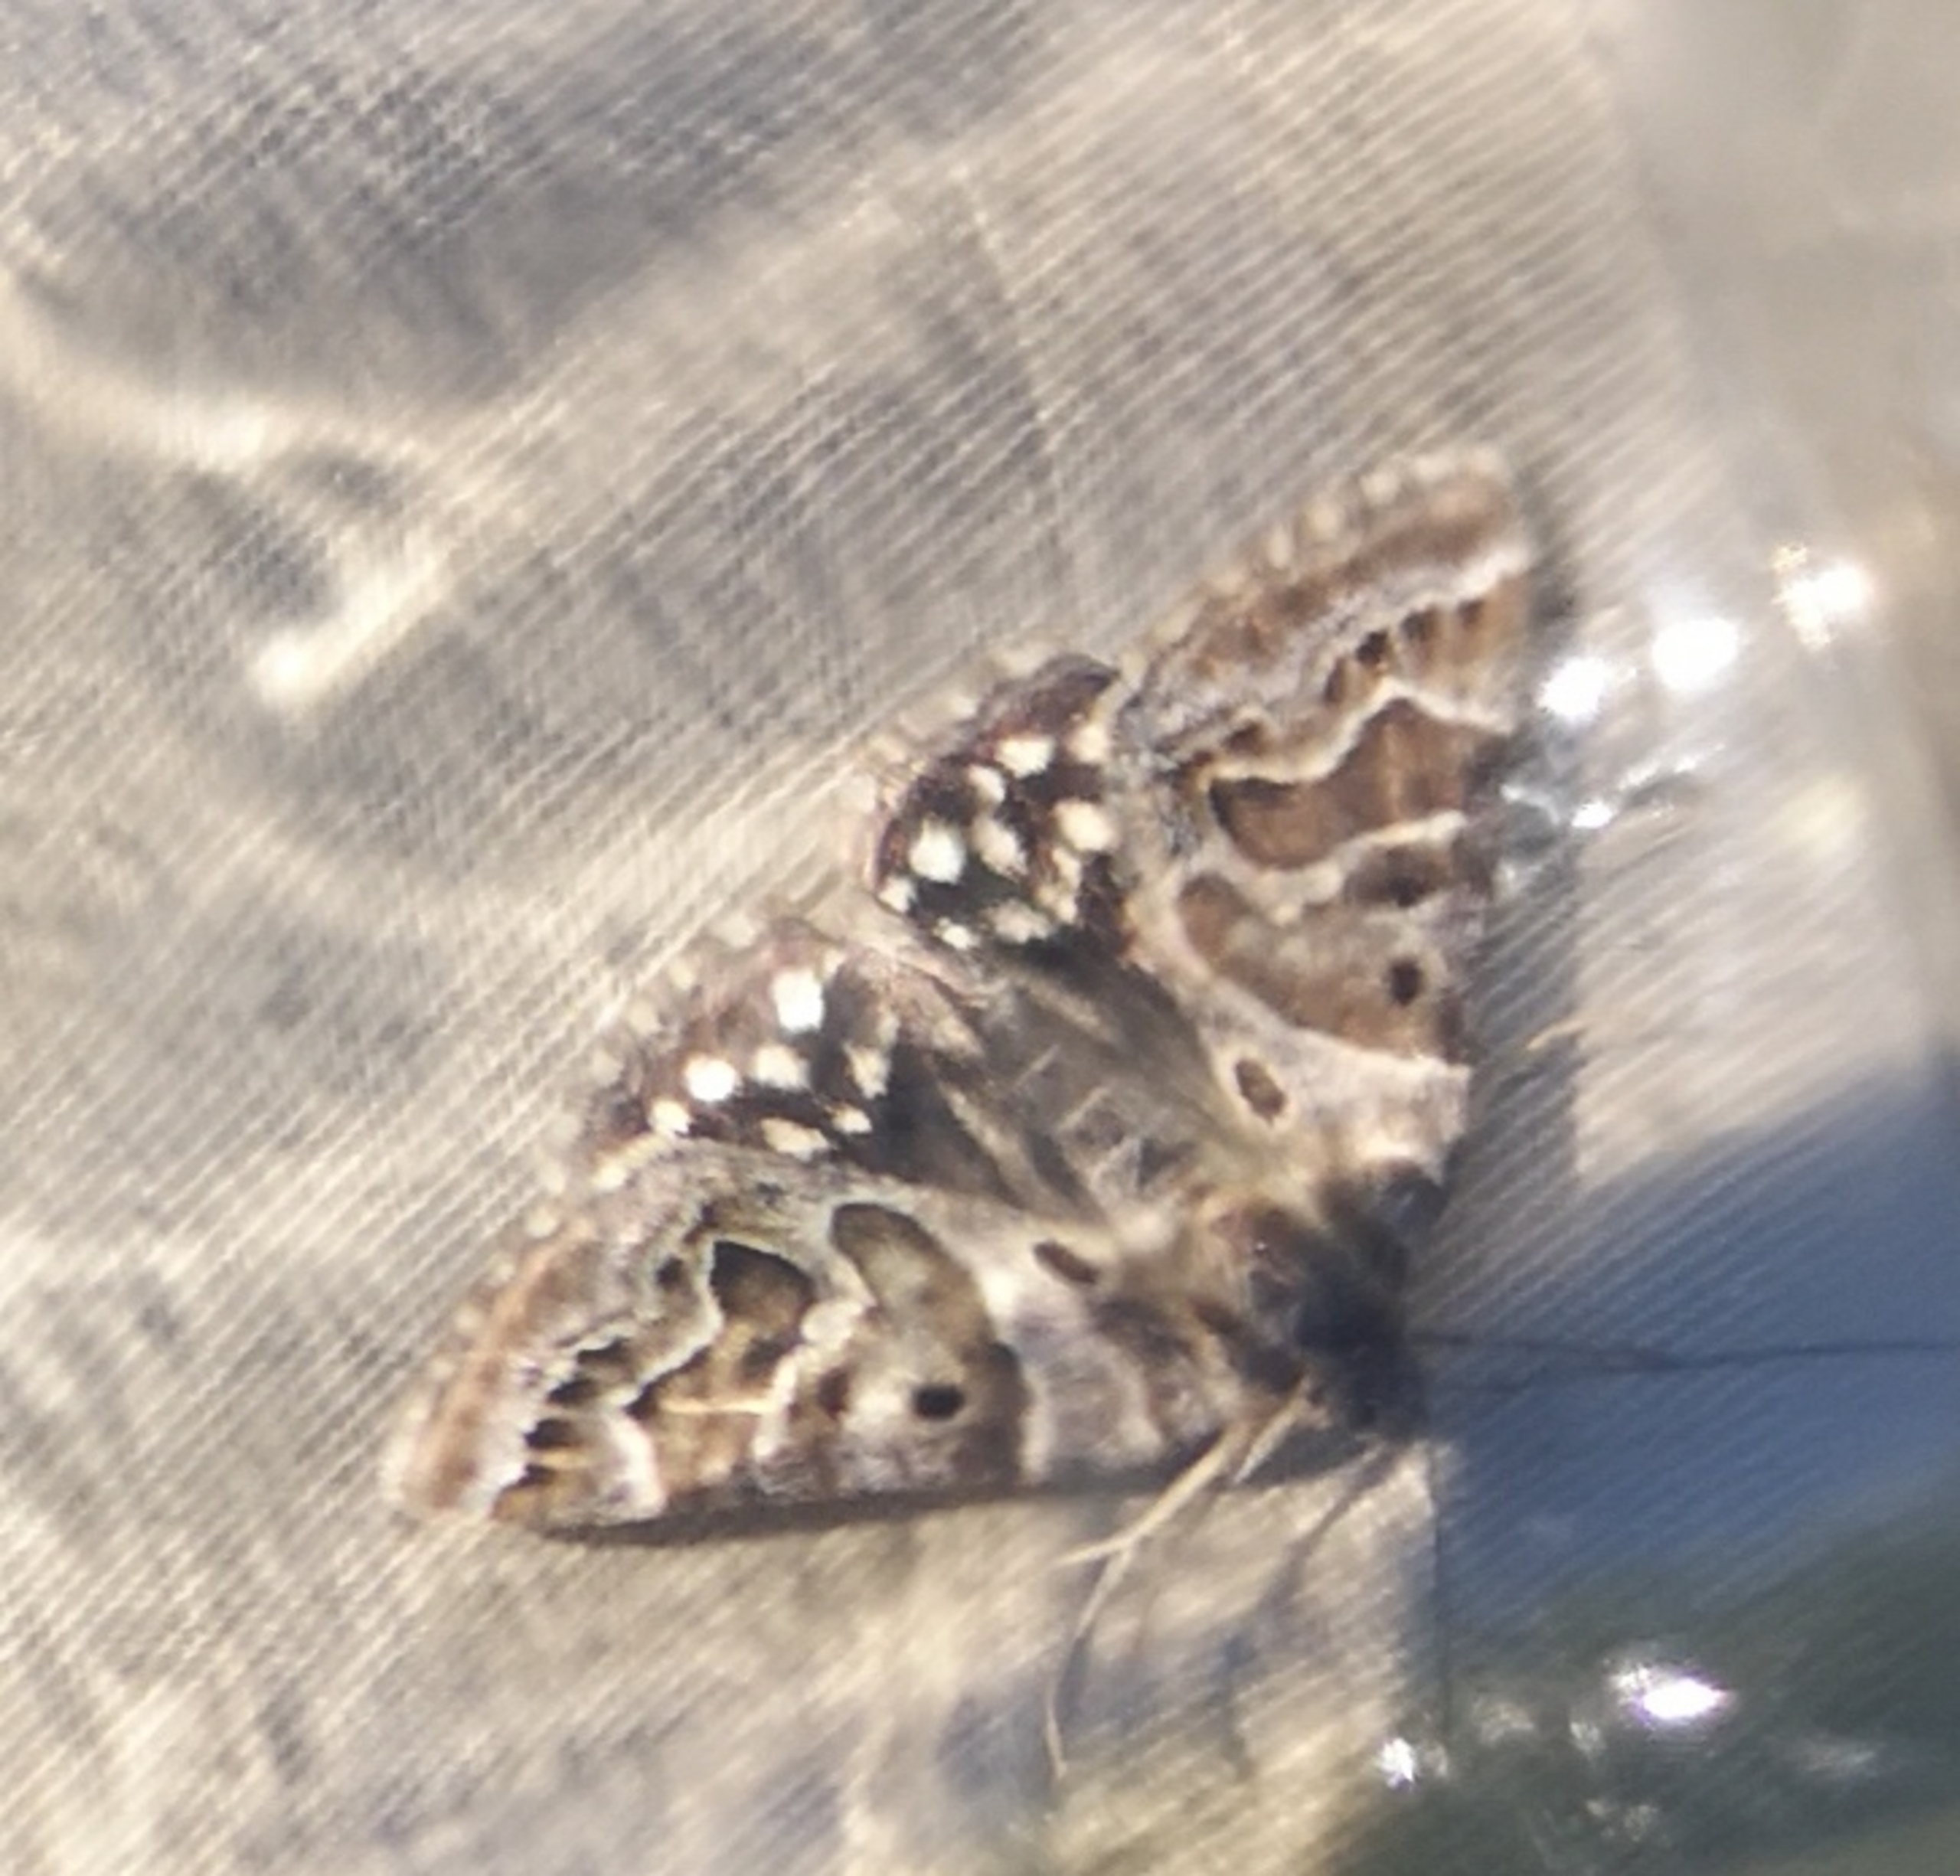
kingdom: Animalia
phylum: Arthropoda
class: Insecta
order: Lepidoptera
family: Erebidae
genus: Callistege
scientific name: Callistege mi
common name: Marmoreret kløverugle
